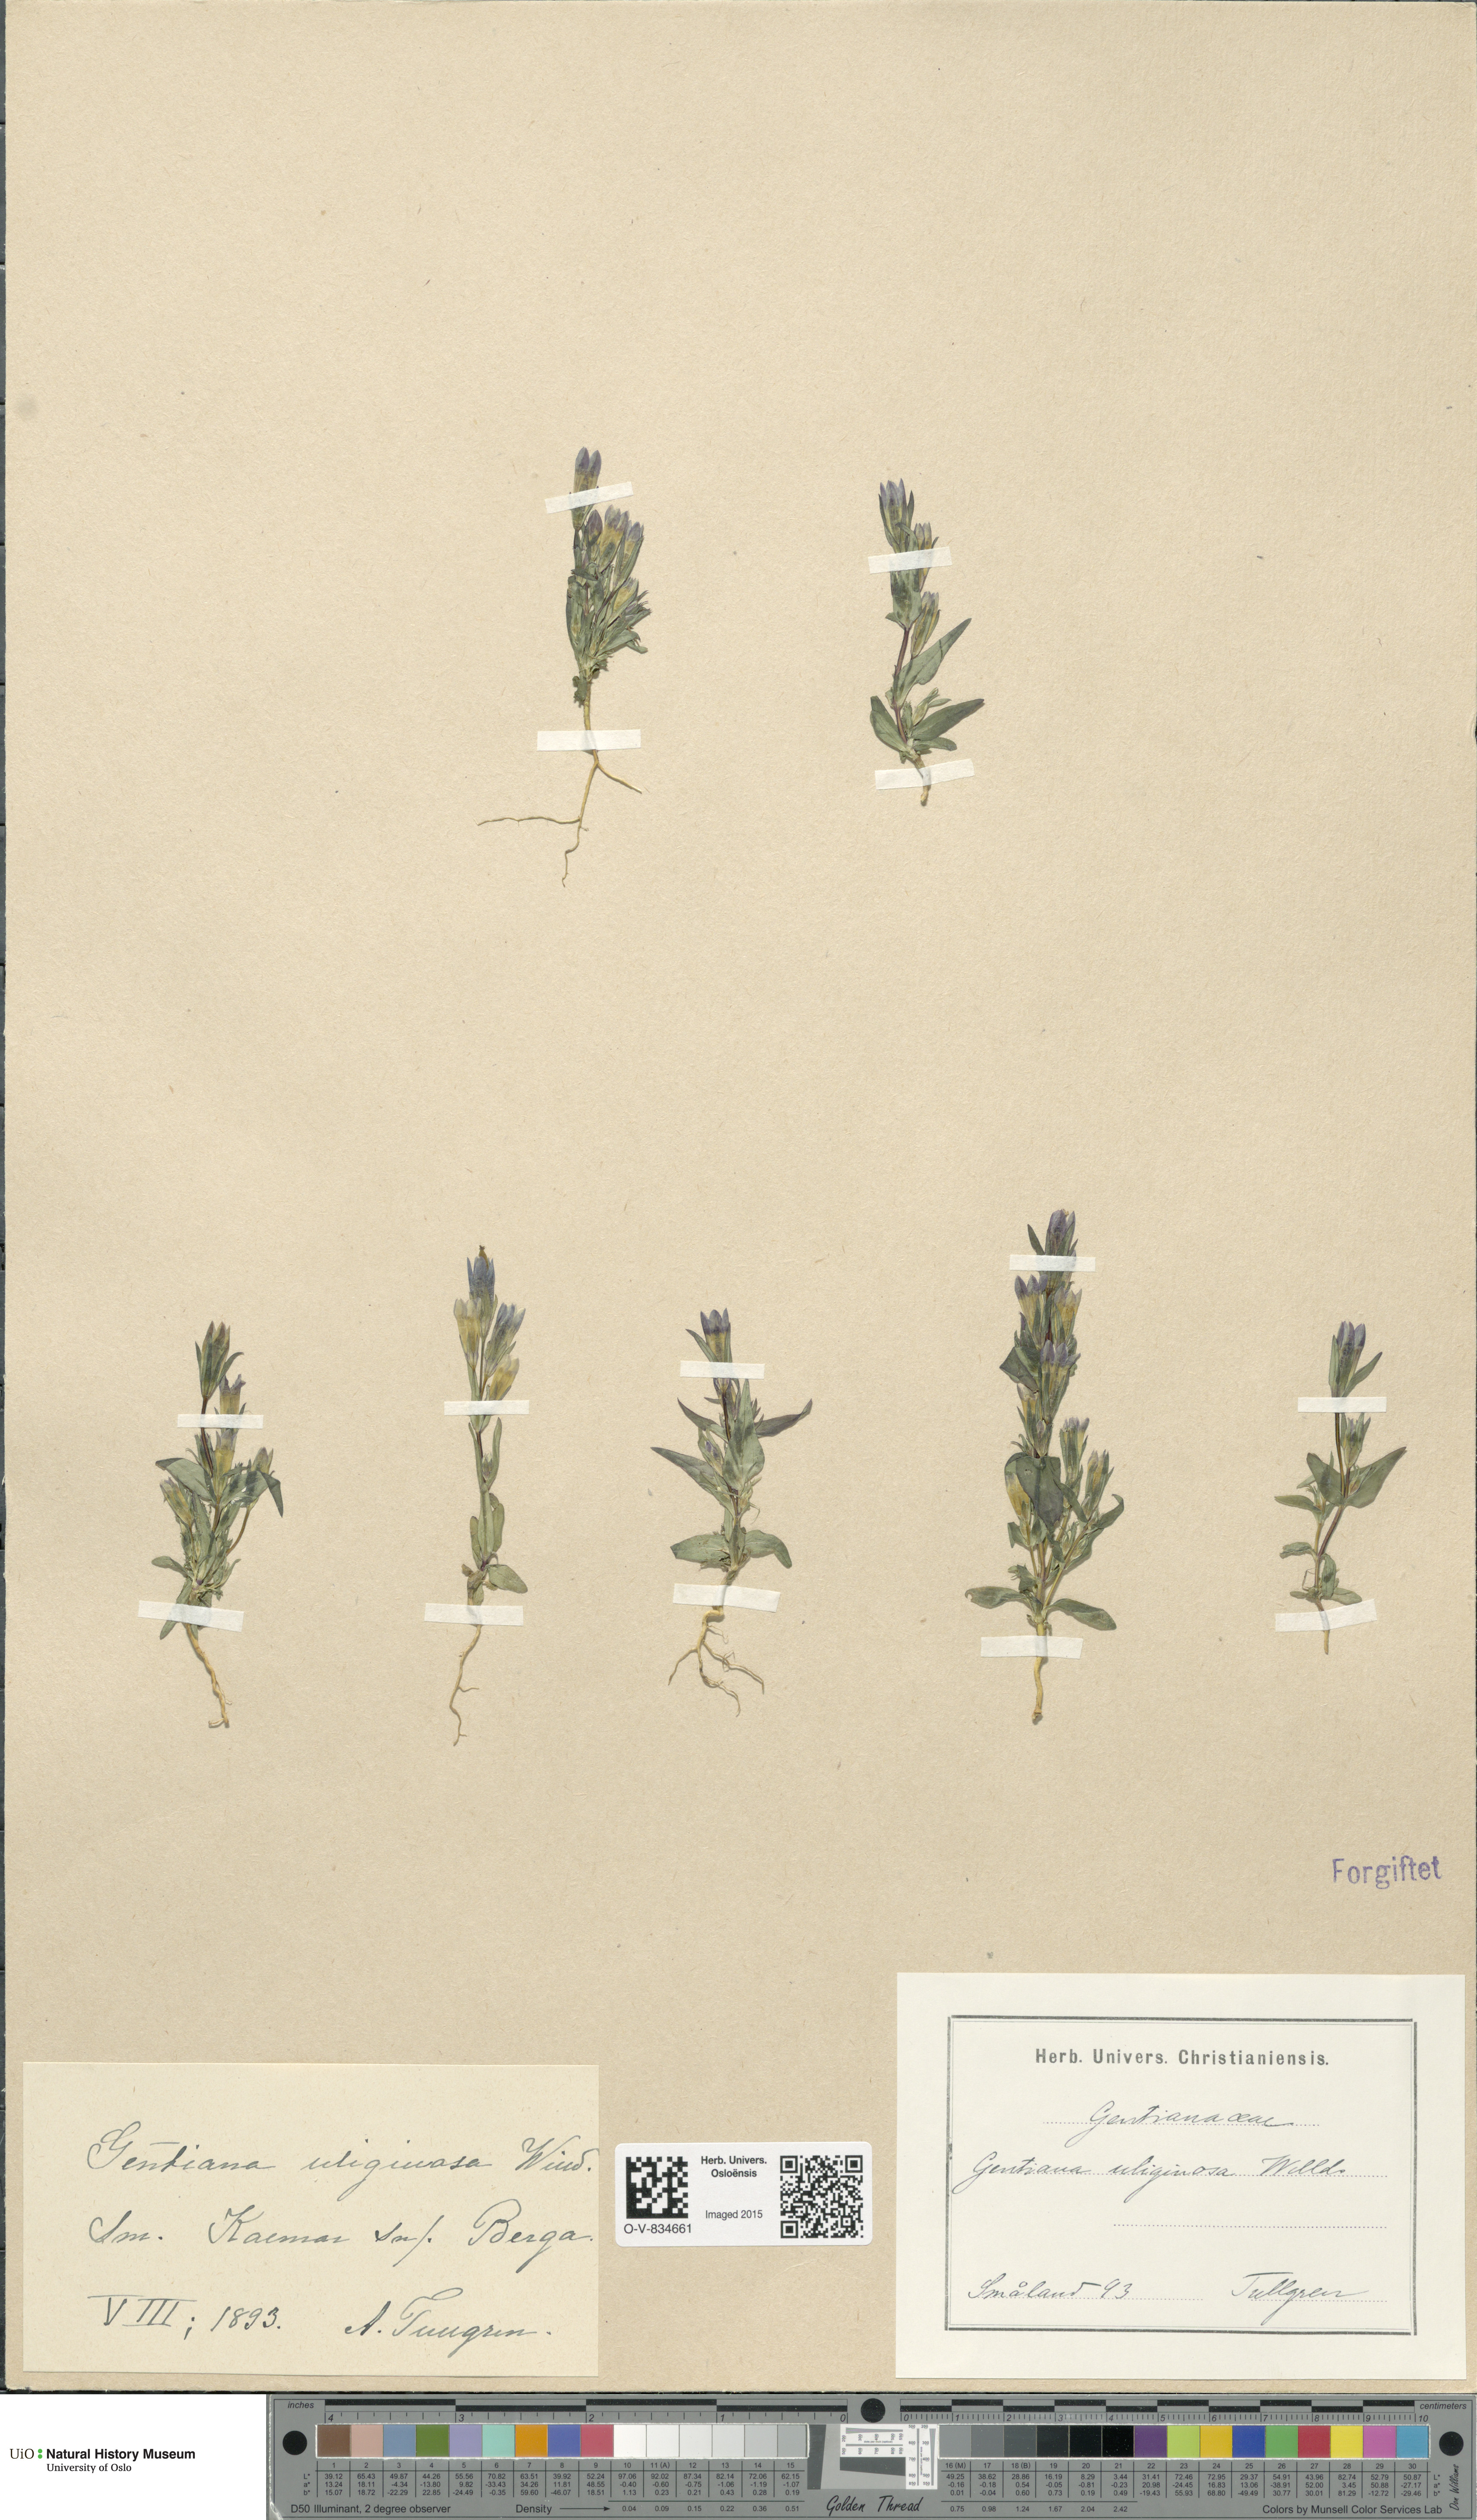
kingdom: Plantae
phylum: Tracheophyta
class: Magnoliopsida
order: Gentianales
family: Gentianaceae
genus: Gentianella
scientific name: Gentianella uliginosa
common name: Dune gentian
